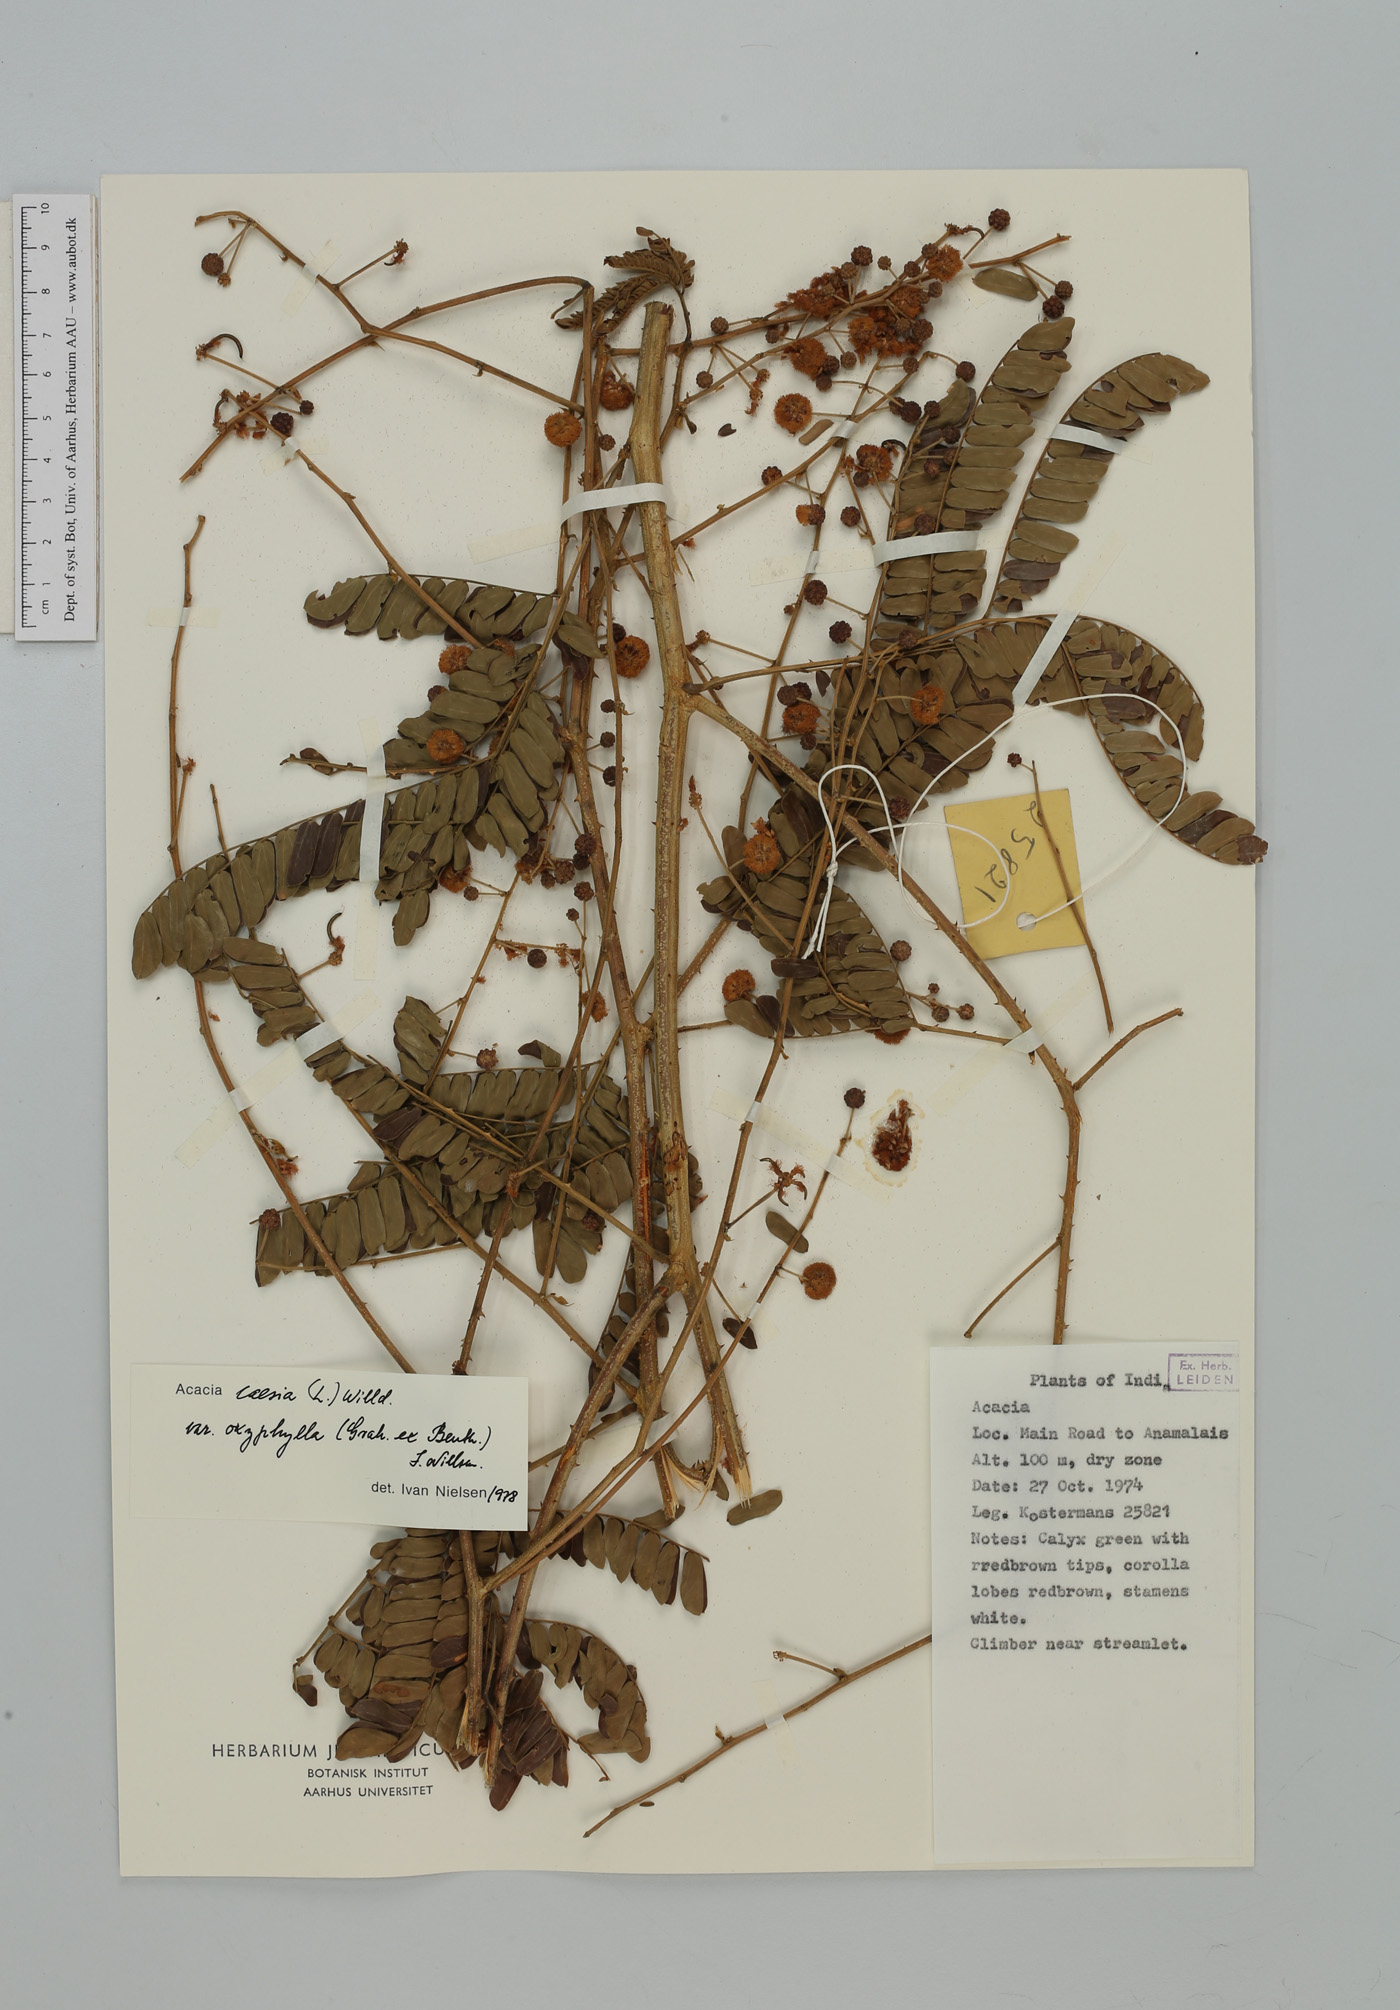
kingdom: Plantae
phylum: Tracheophyta
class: Magnoliopsida
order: Fabales
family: Fabaceae
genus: Senegalia
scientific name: Senegalia caesia
